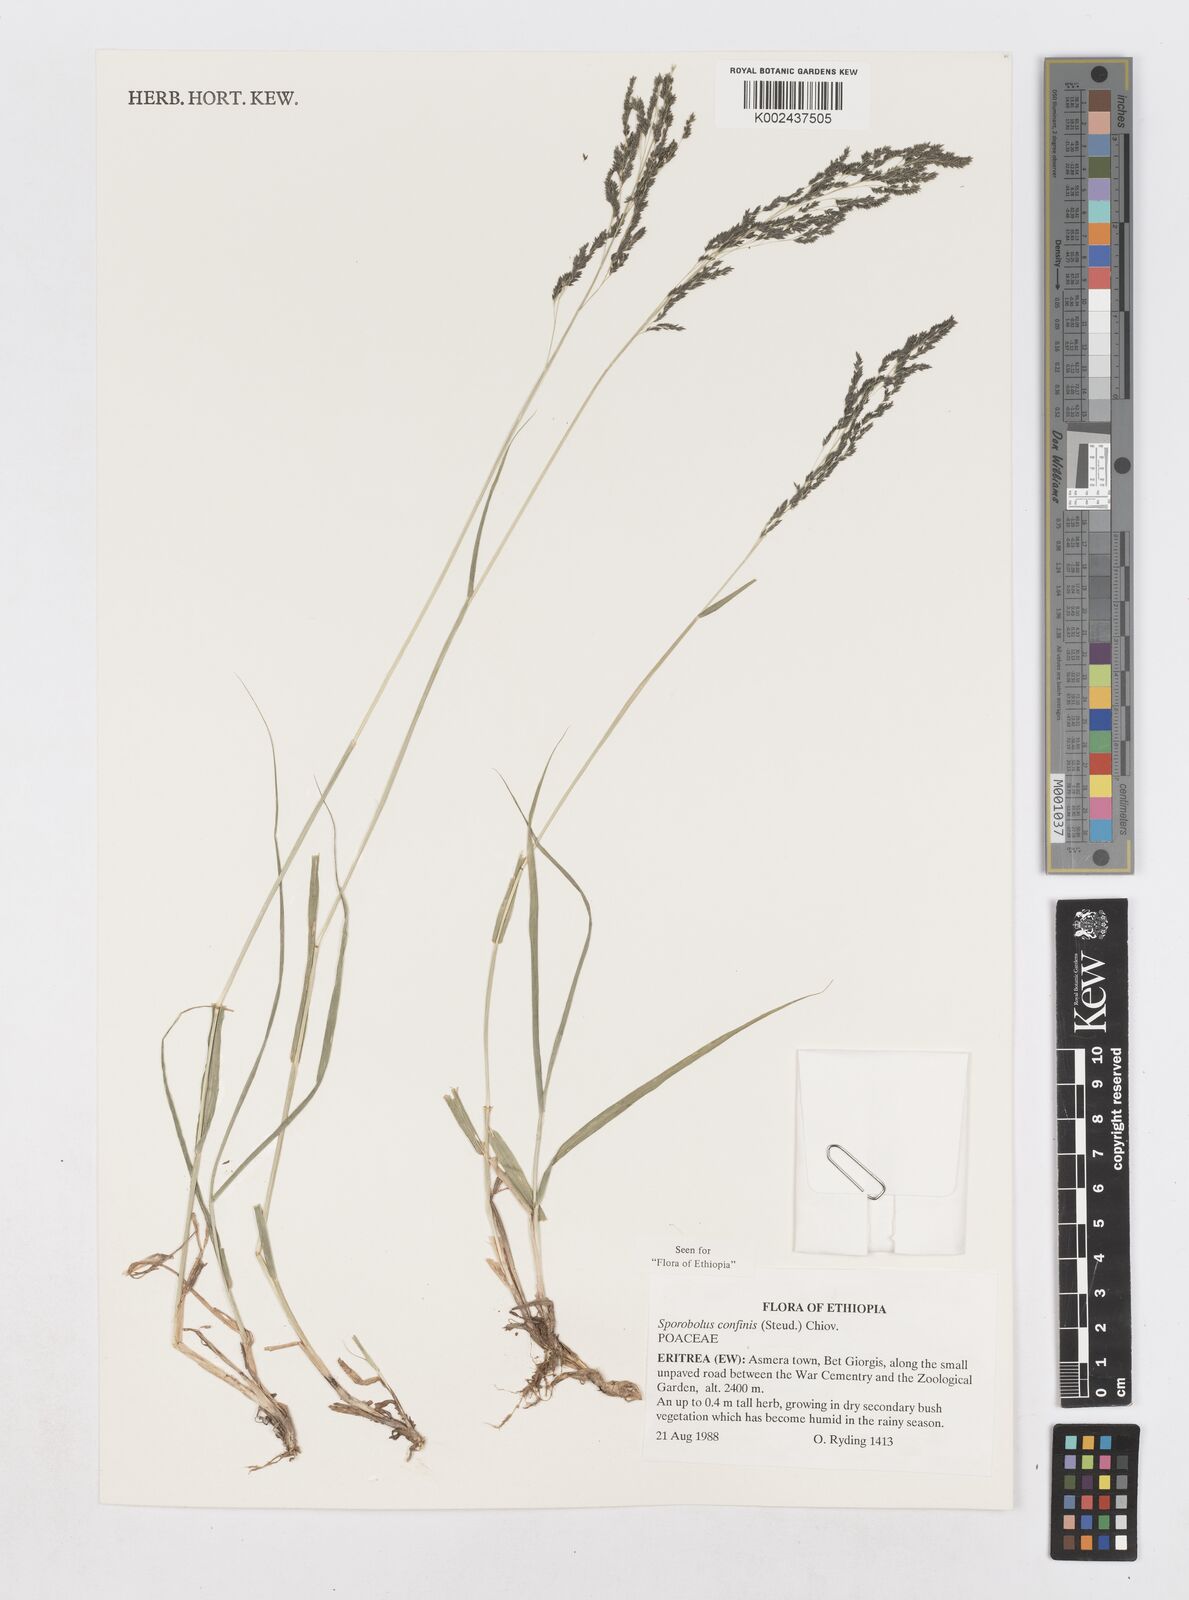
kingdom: Plantae
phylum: Tracheophyta
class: Liliopsida
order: Poales
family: Poaceae
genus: Sporobolus
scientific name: Sporobolus confinis
